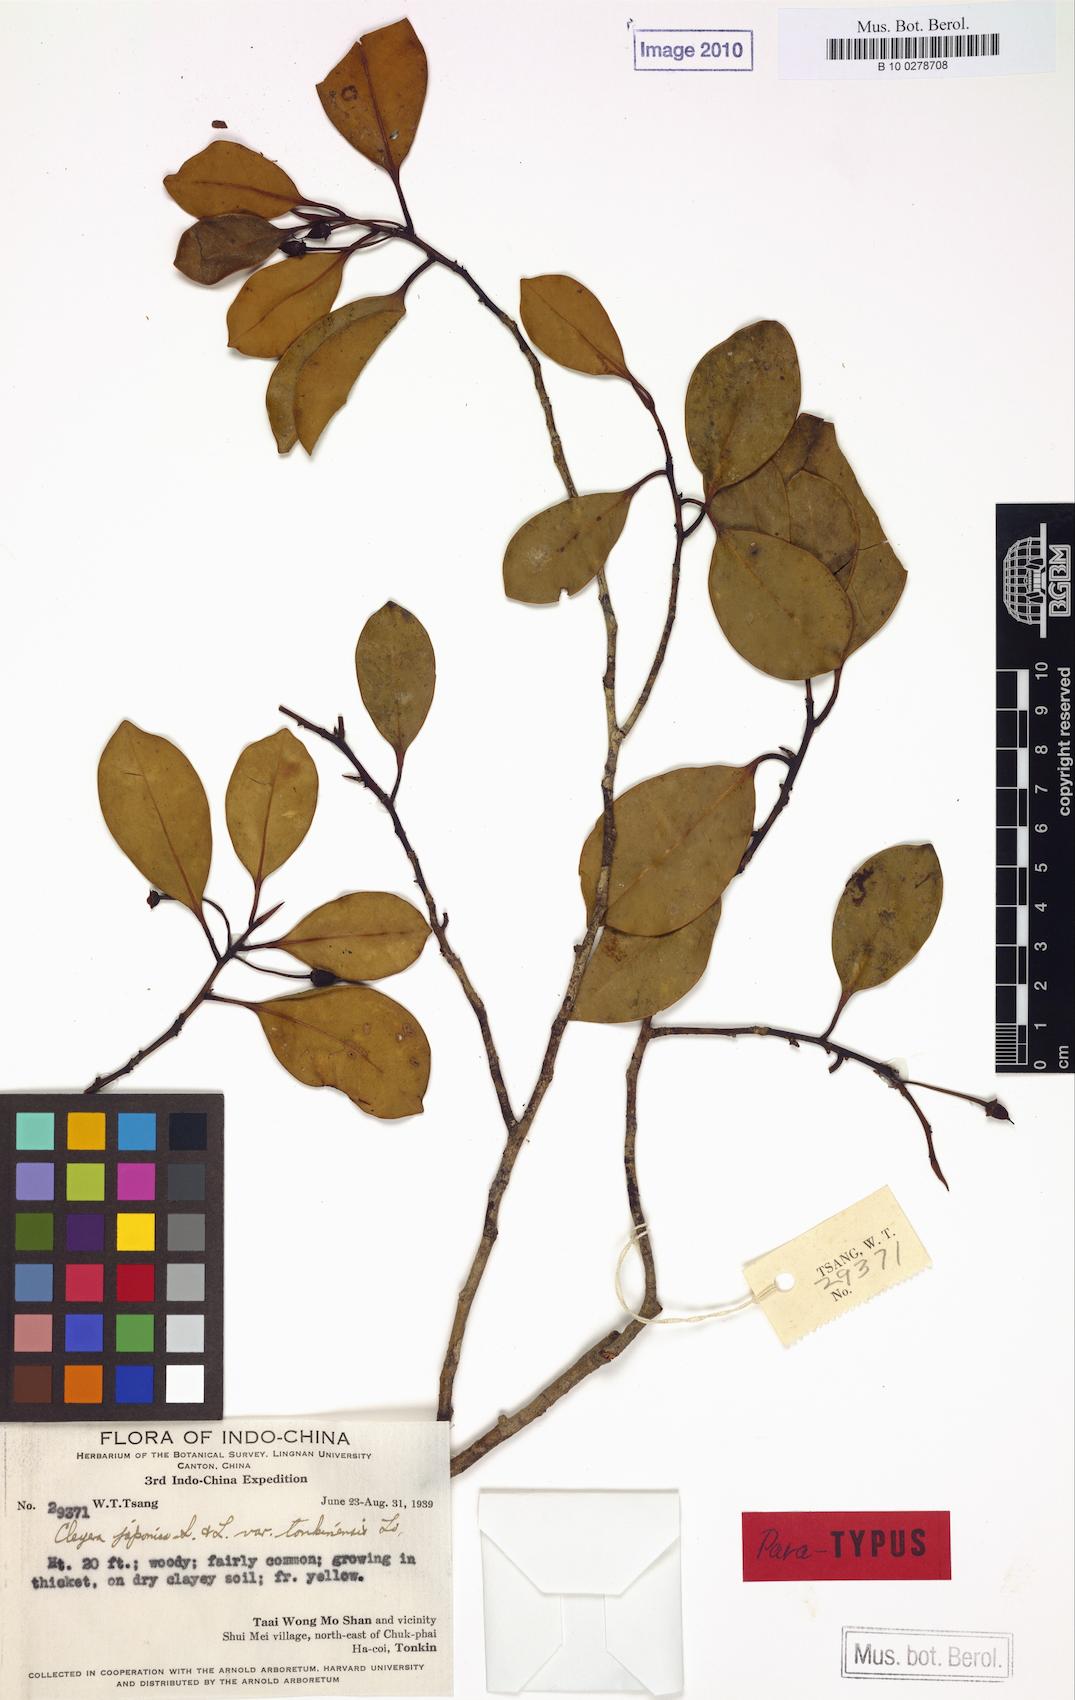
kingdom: Plantae
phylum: Tracheophyta
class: Magnoliopsida
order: Ericales
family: Pentaphylacaceae
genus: Cleyera
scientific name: Cleyera japonica
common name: Sakaki
